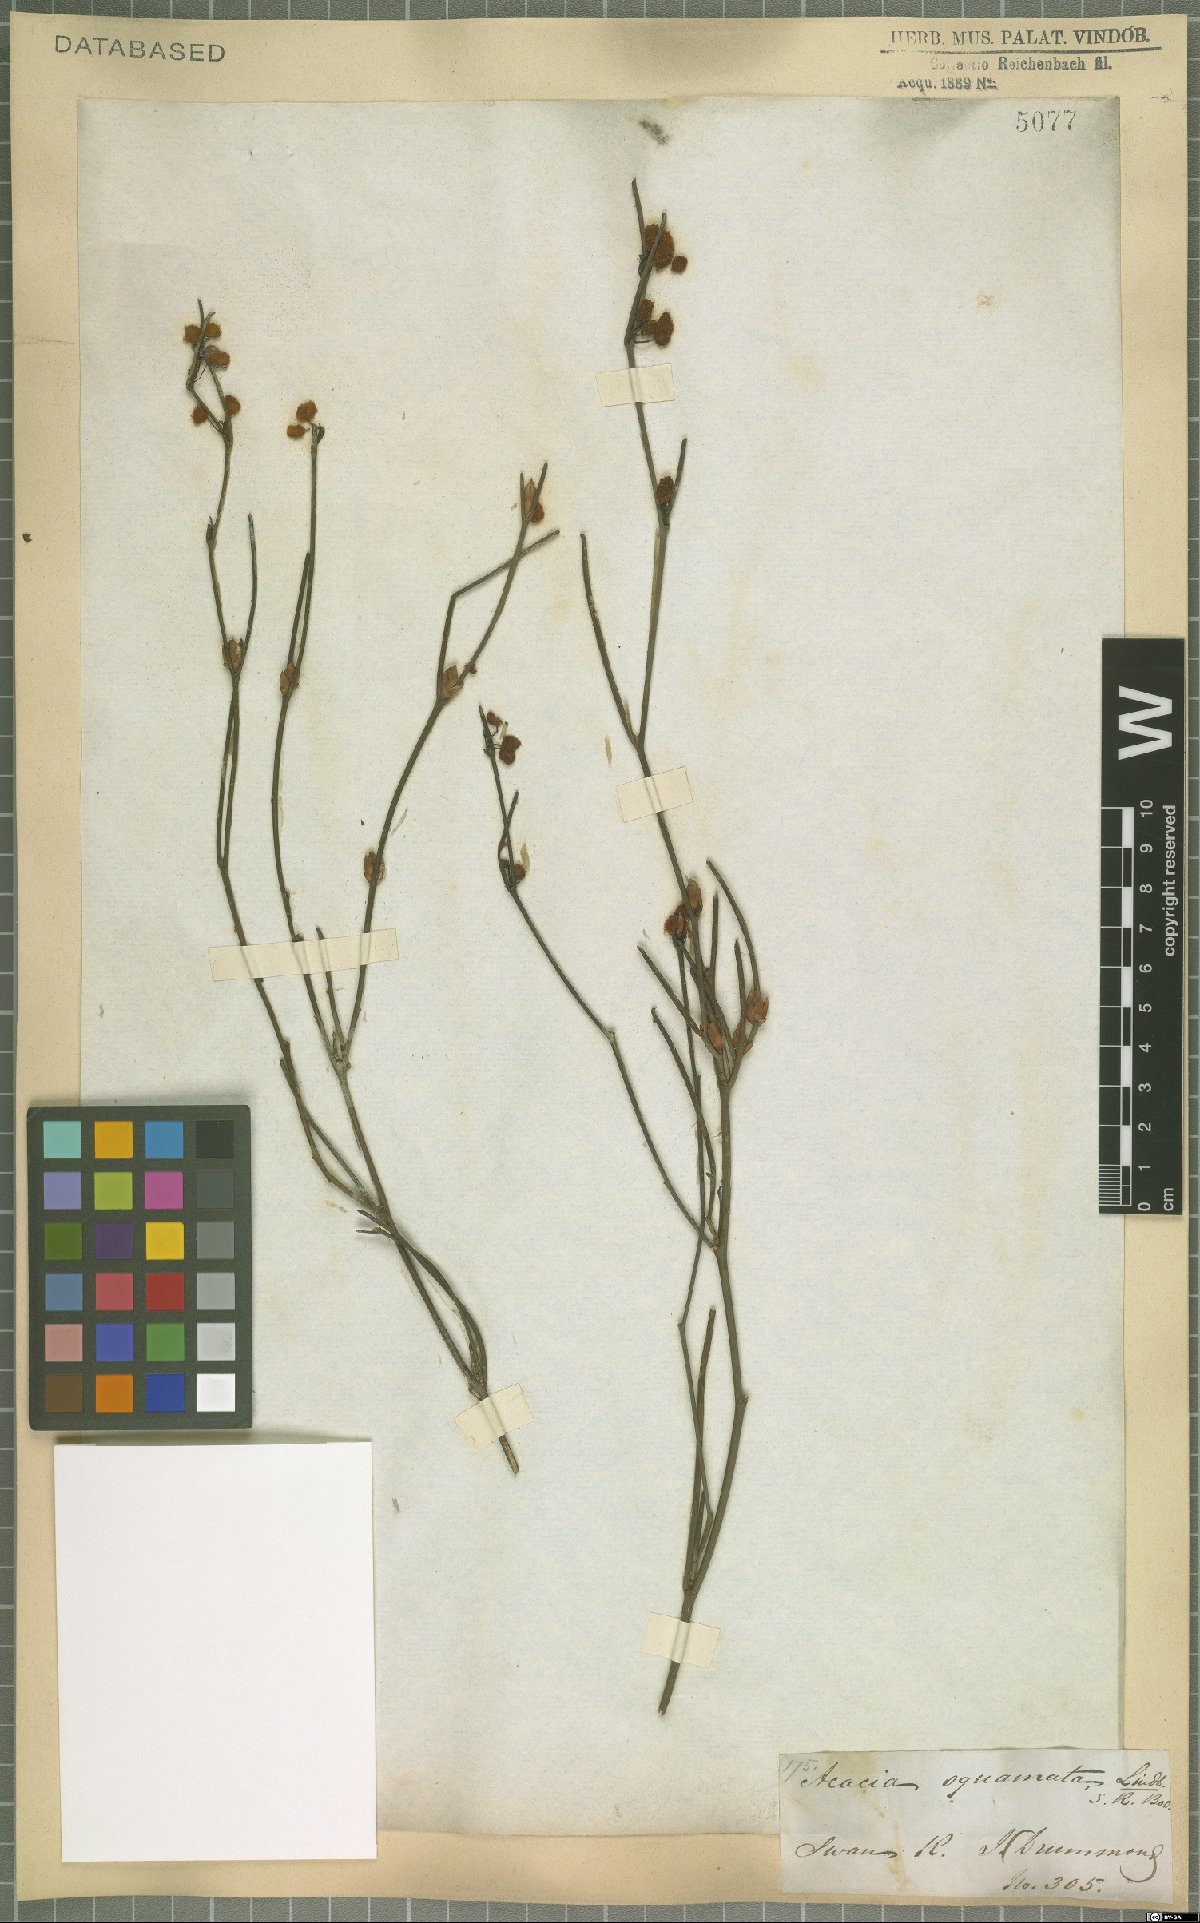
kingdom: Plantae
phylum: Tracheophyta
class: Magnoliopsida
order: Fabales
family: Fabaceae
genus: Acacia
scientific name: Acacia squamata
